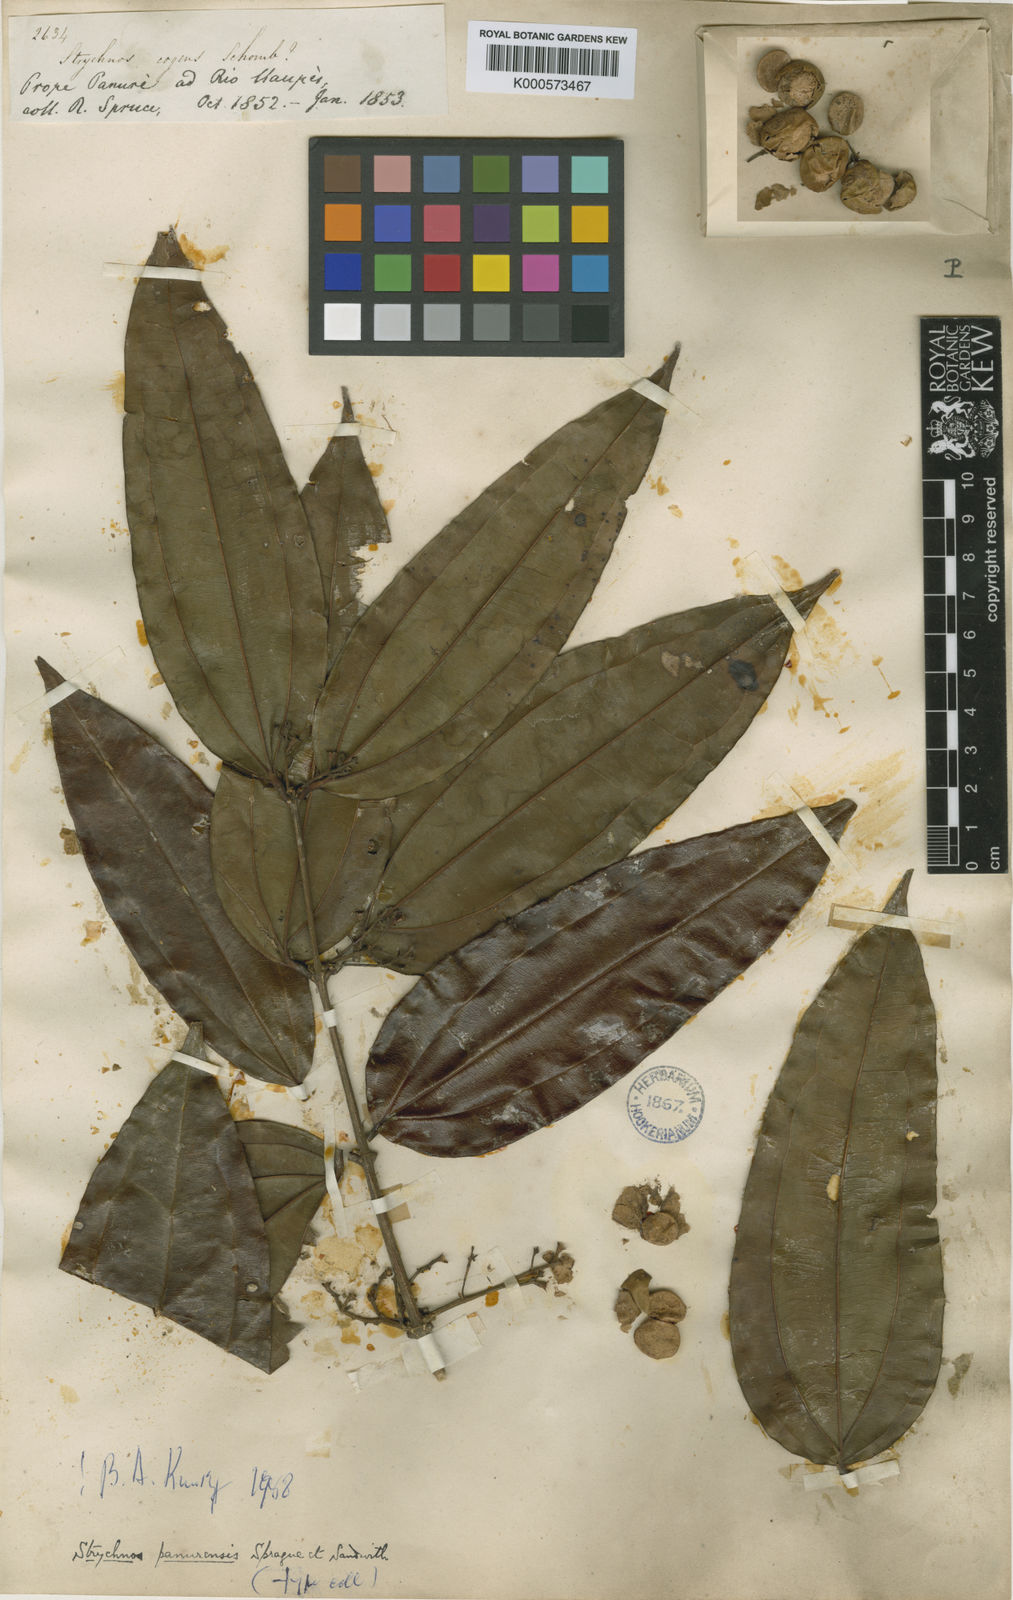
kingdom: Plantae
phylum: Tracheophyta
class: Magnoliopsida
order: Gentianales
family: Loganiaceae
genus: Strychnos
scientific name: Strychnos gubleri
